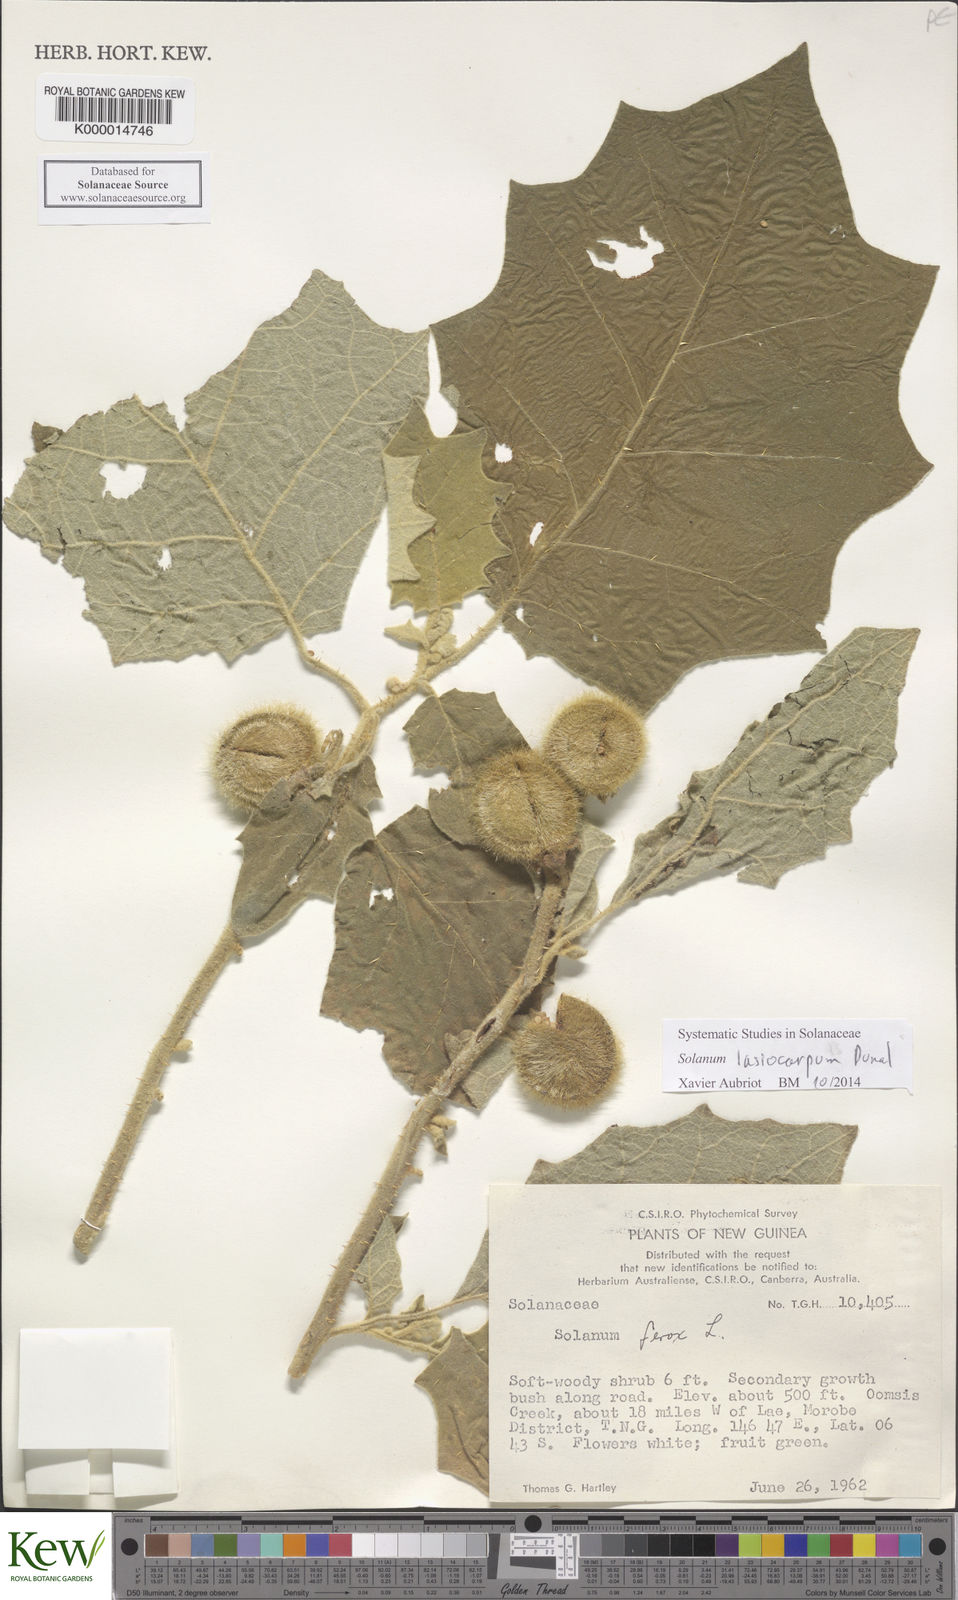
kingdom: Plantae
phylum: Tracheophyta
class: Magnoliopsida
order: Solanales
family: Solanaceae
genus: Solanum
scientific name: Solanum lasiocarpum
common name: Indian nightshade
